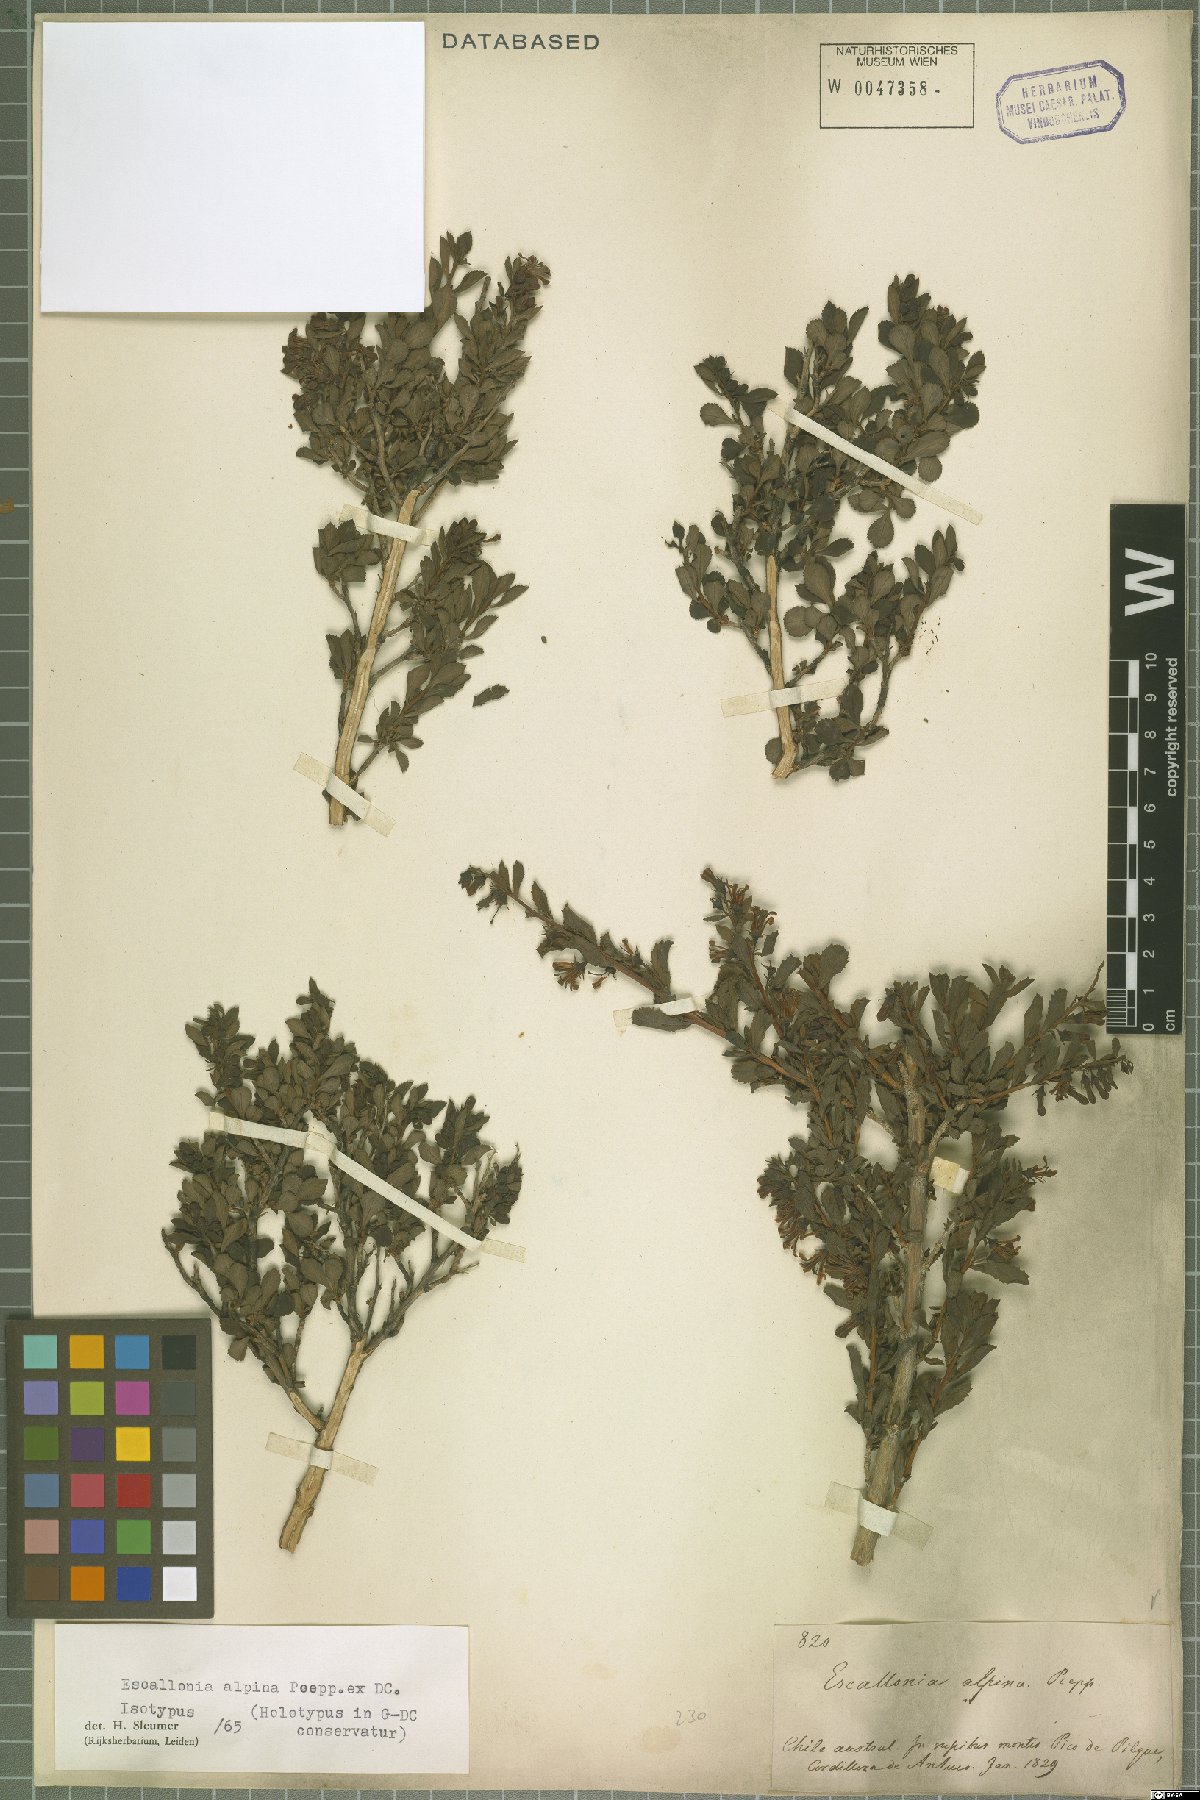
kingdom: Plantae
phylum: Tracheophyta
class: Magnoliopsida
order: Escalloniales
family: Escalloniaceae
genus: Escallonia
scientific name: Escallonia alpina
